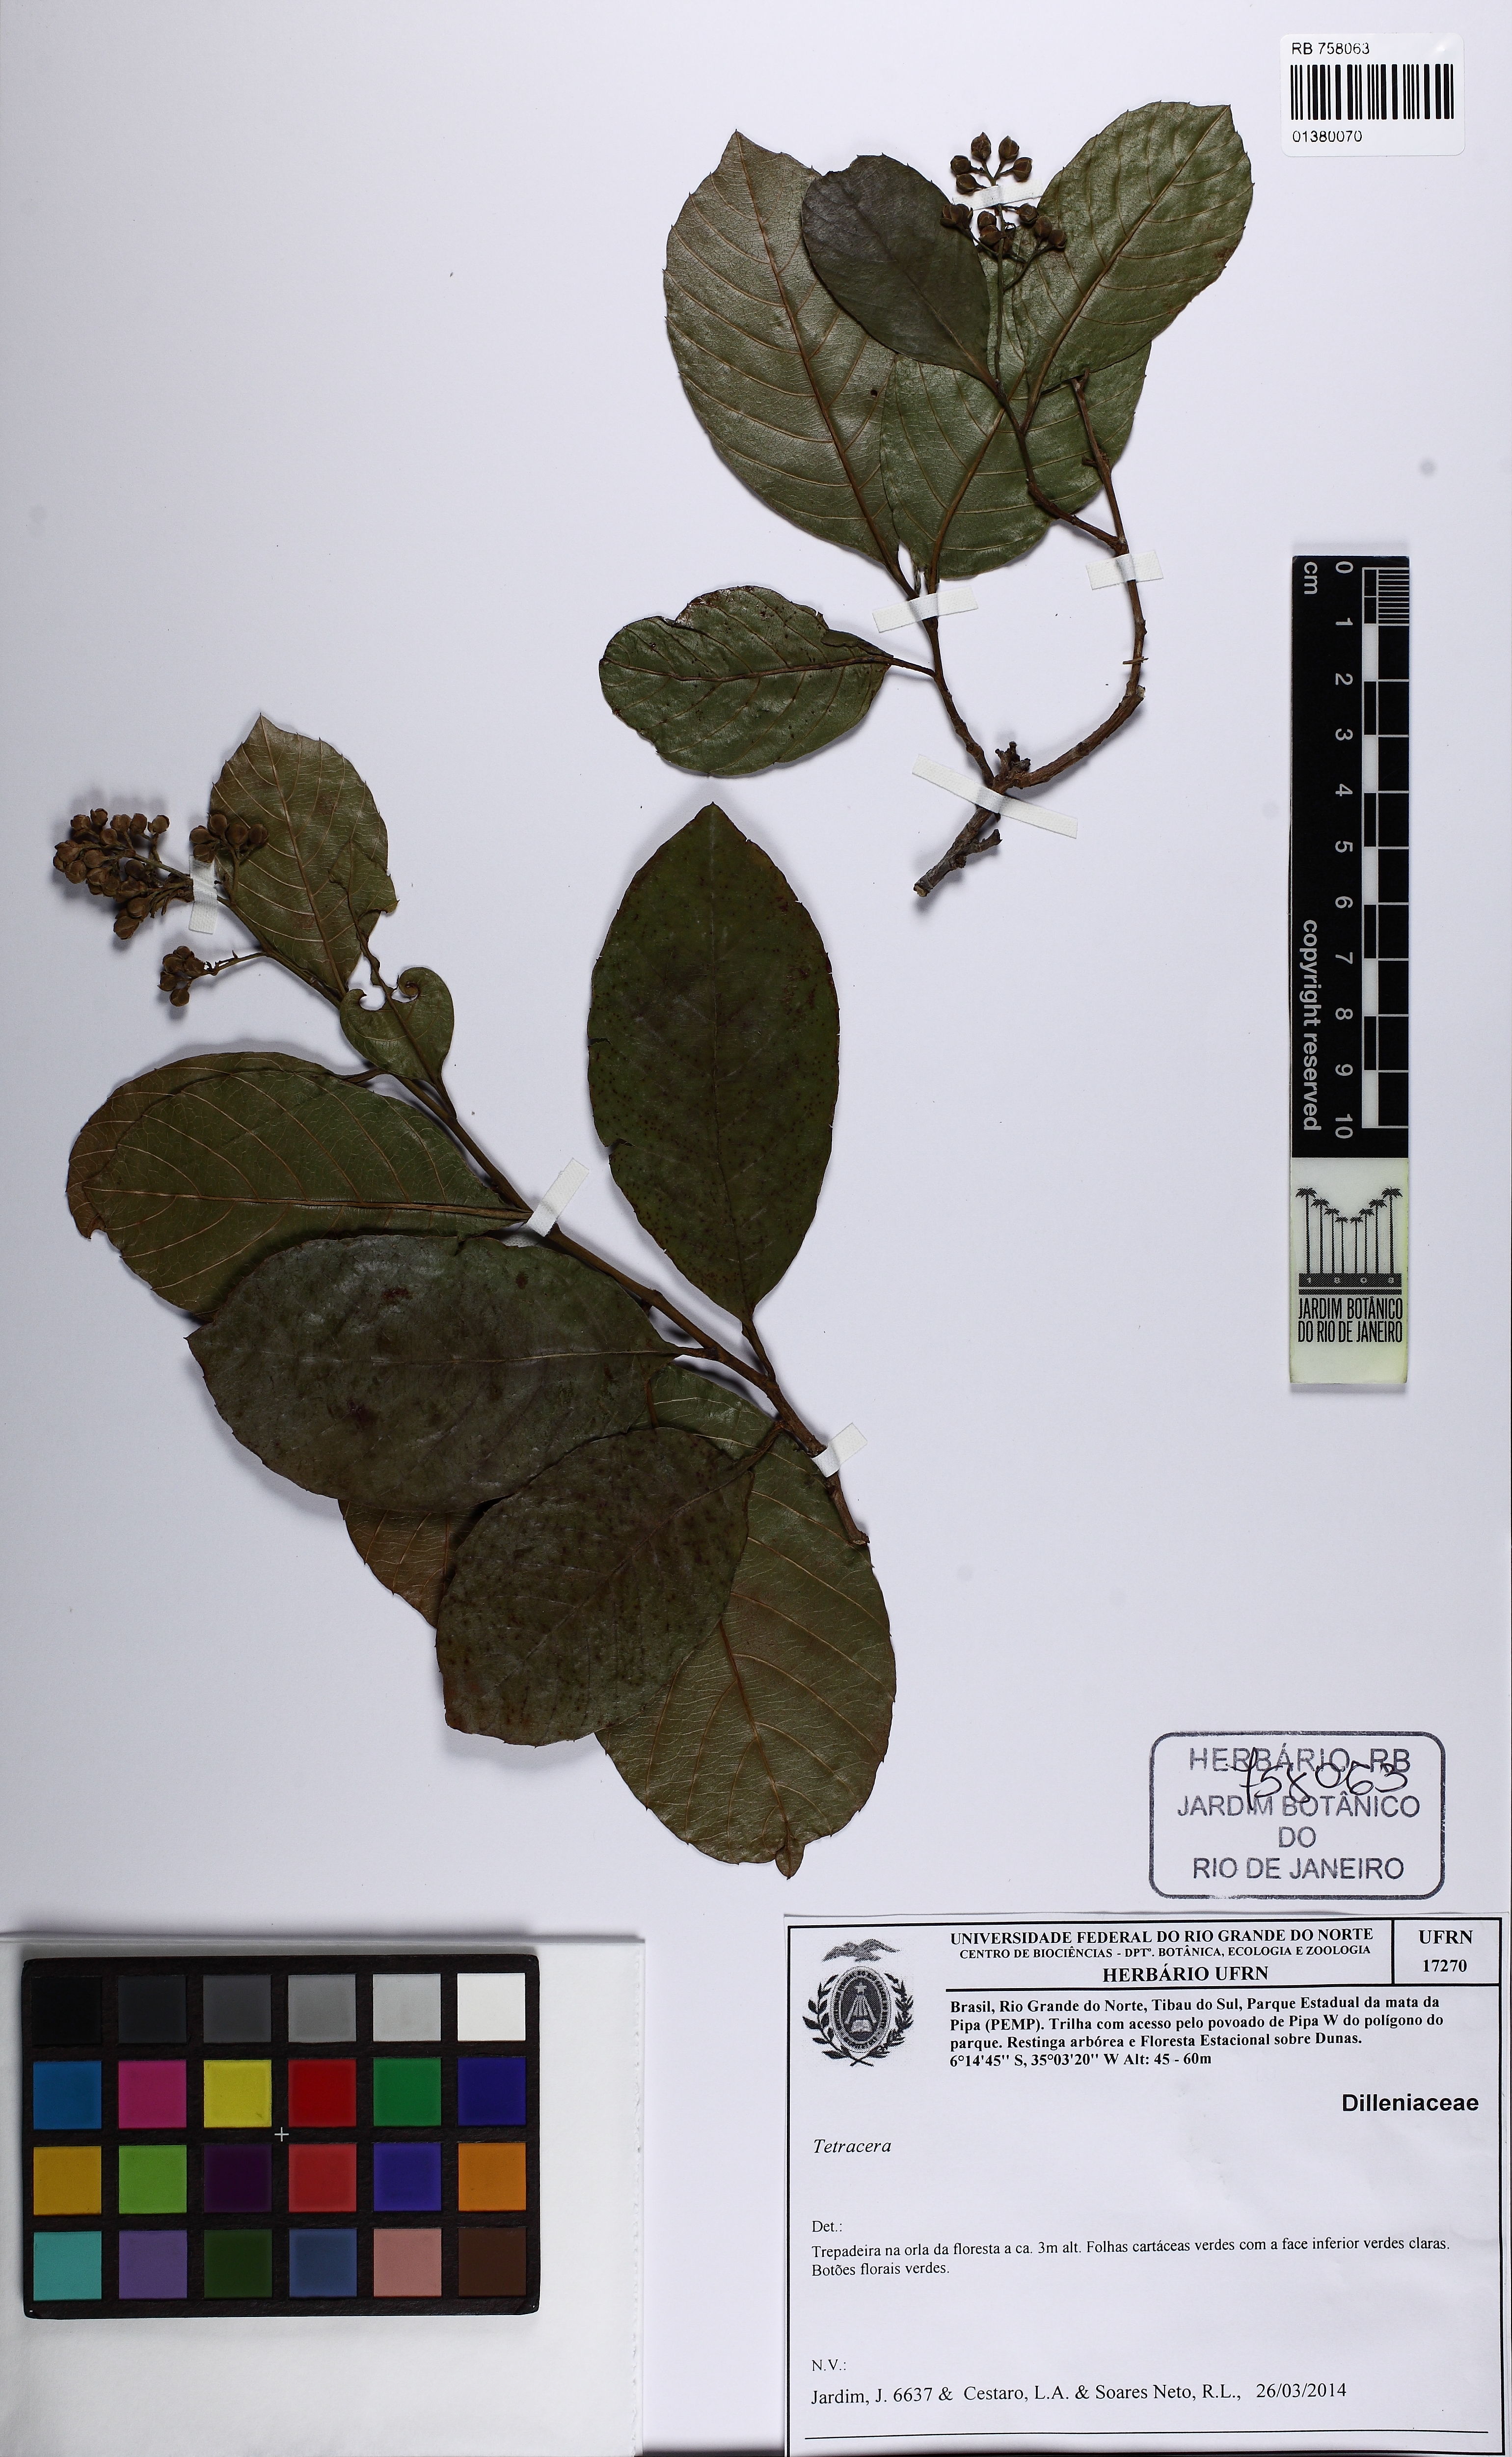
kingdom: Plantae
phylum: Tracheophyta
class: Magnoliopsida
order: Dilleniales
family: Dilleniaceae
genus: Tetracera
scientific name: Tetracera breyniana
